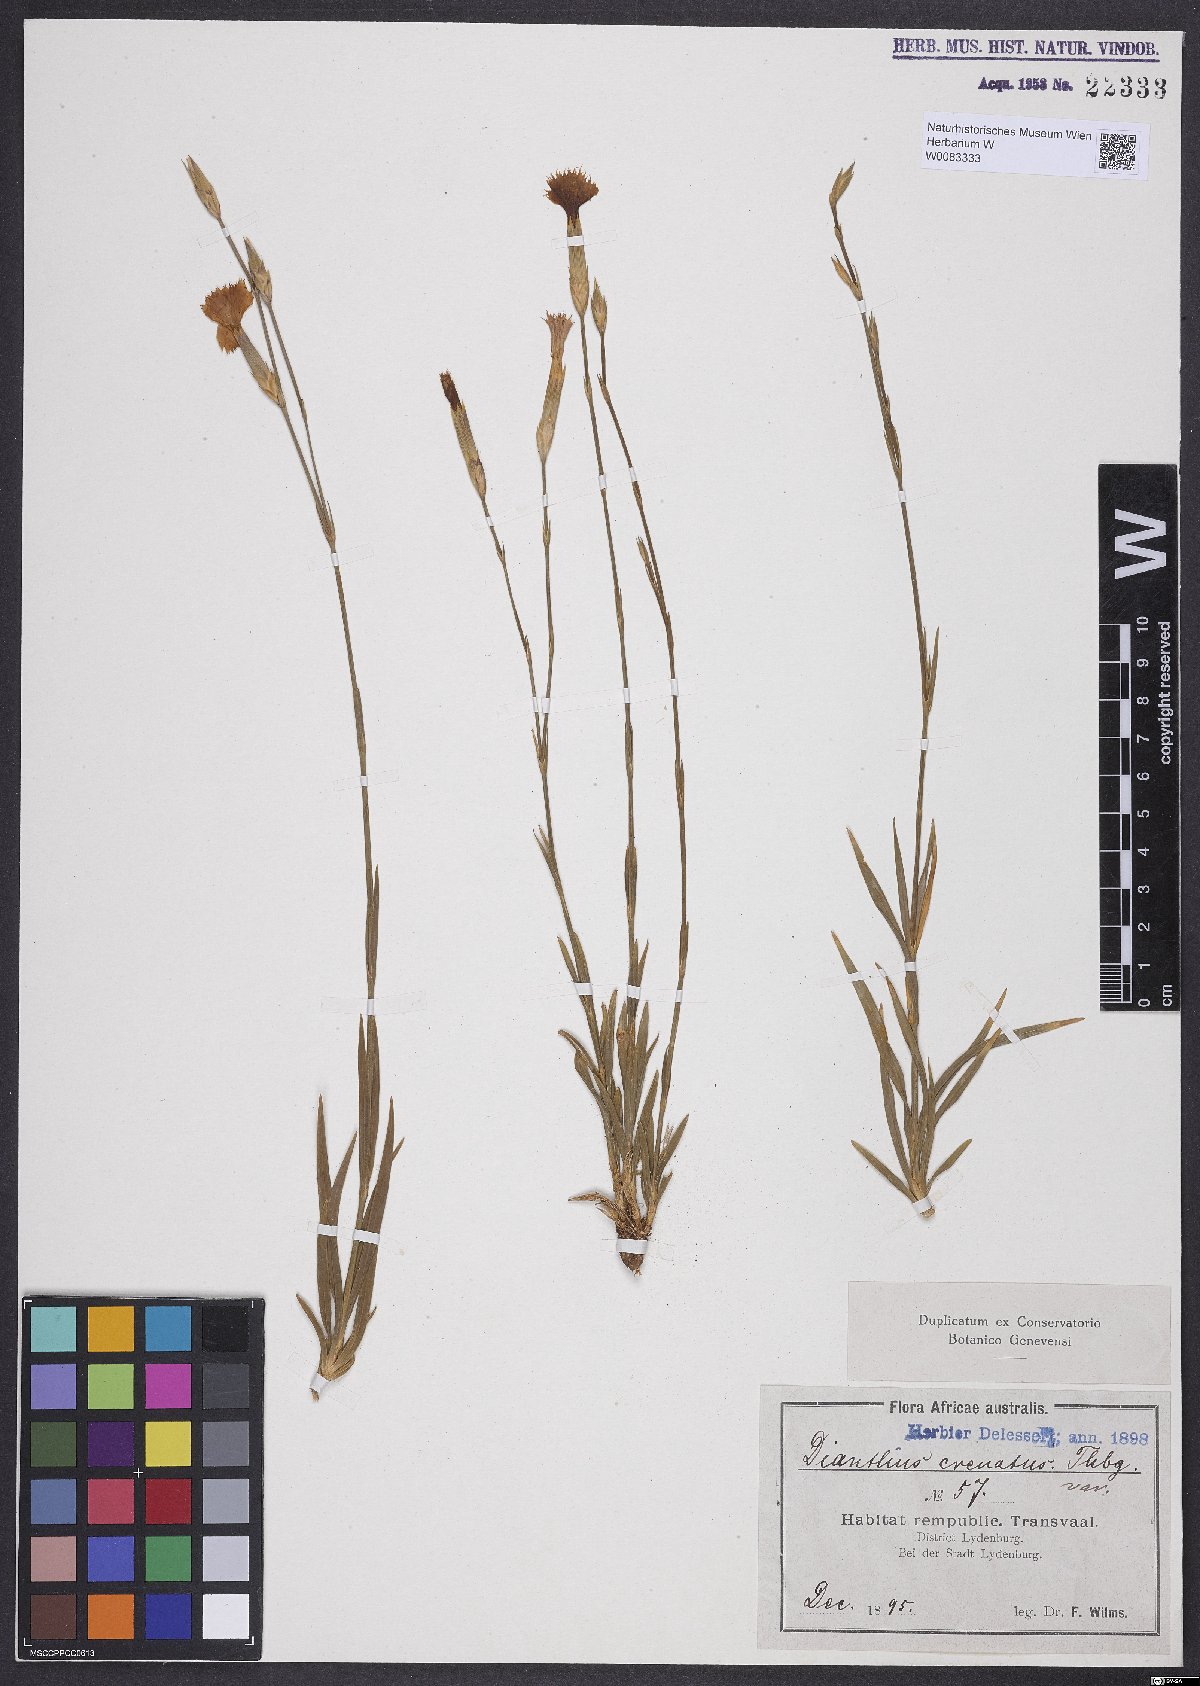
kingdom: Plantae
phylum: Tracheophyta
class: Magnoliopsida
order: Caryophyllales
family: Caryophyllaceae
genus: Dianthus
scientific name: Dianthus crenatus
